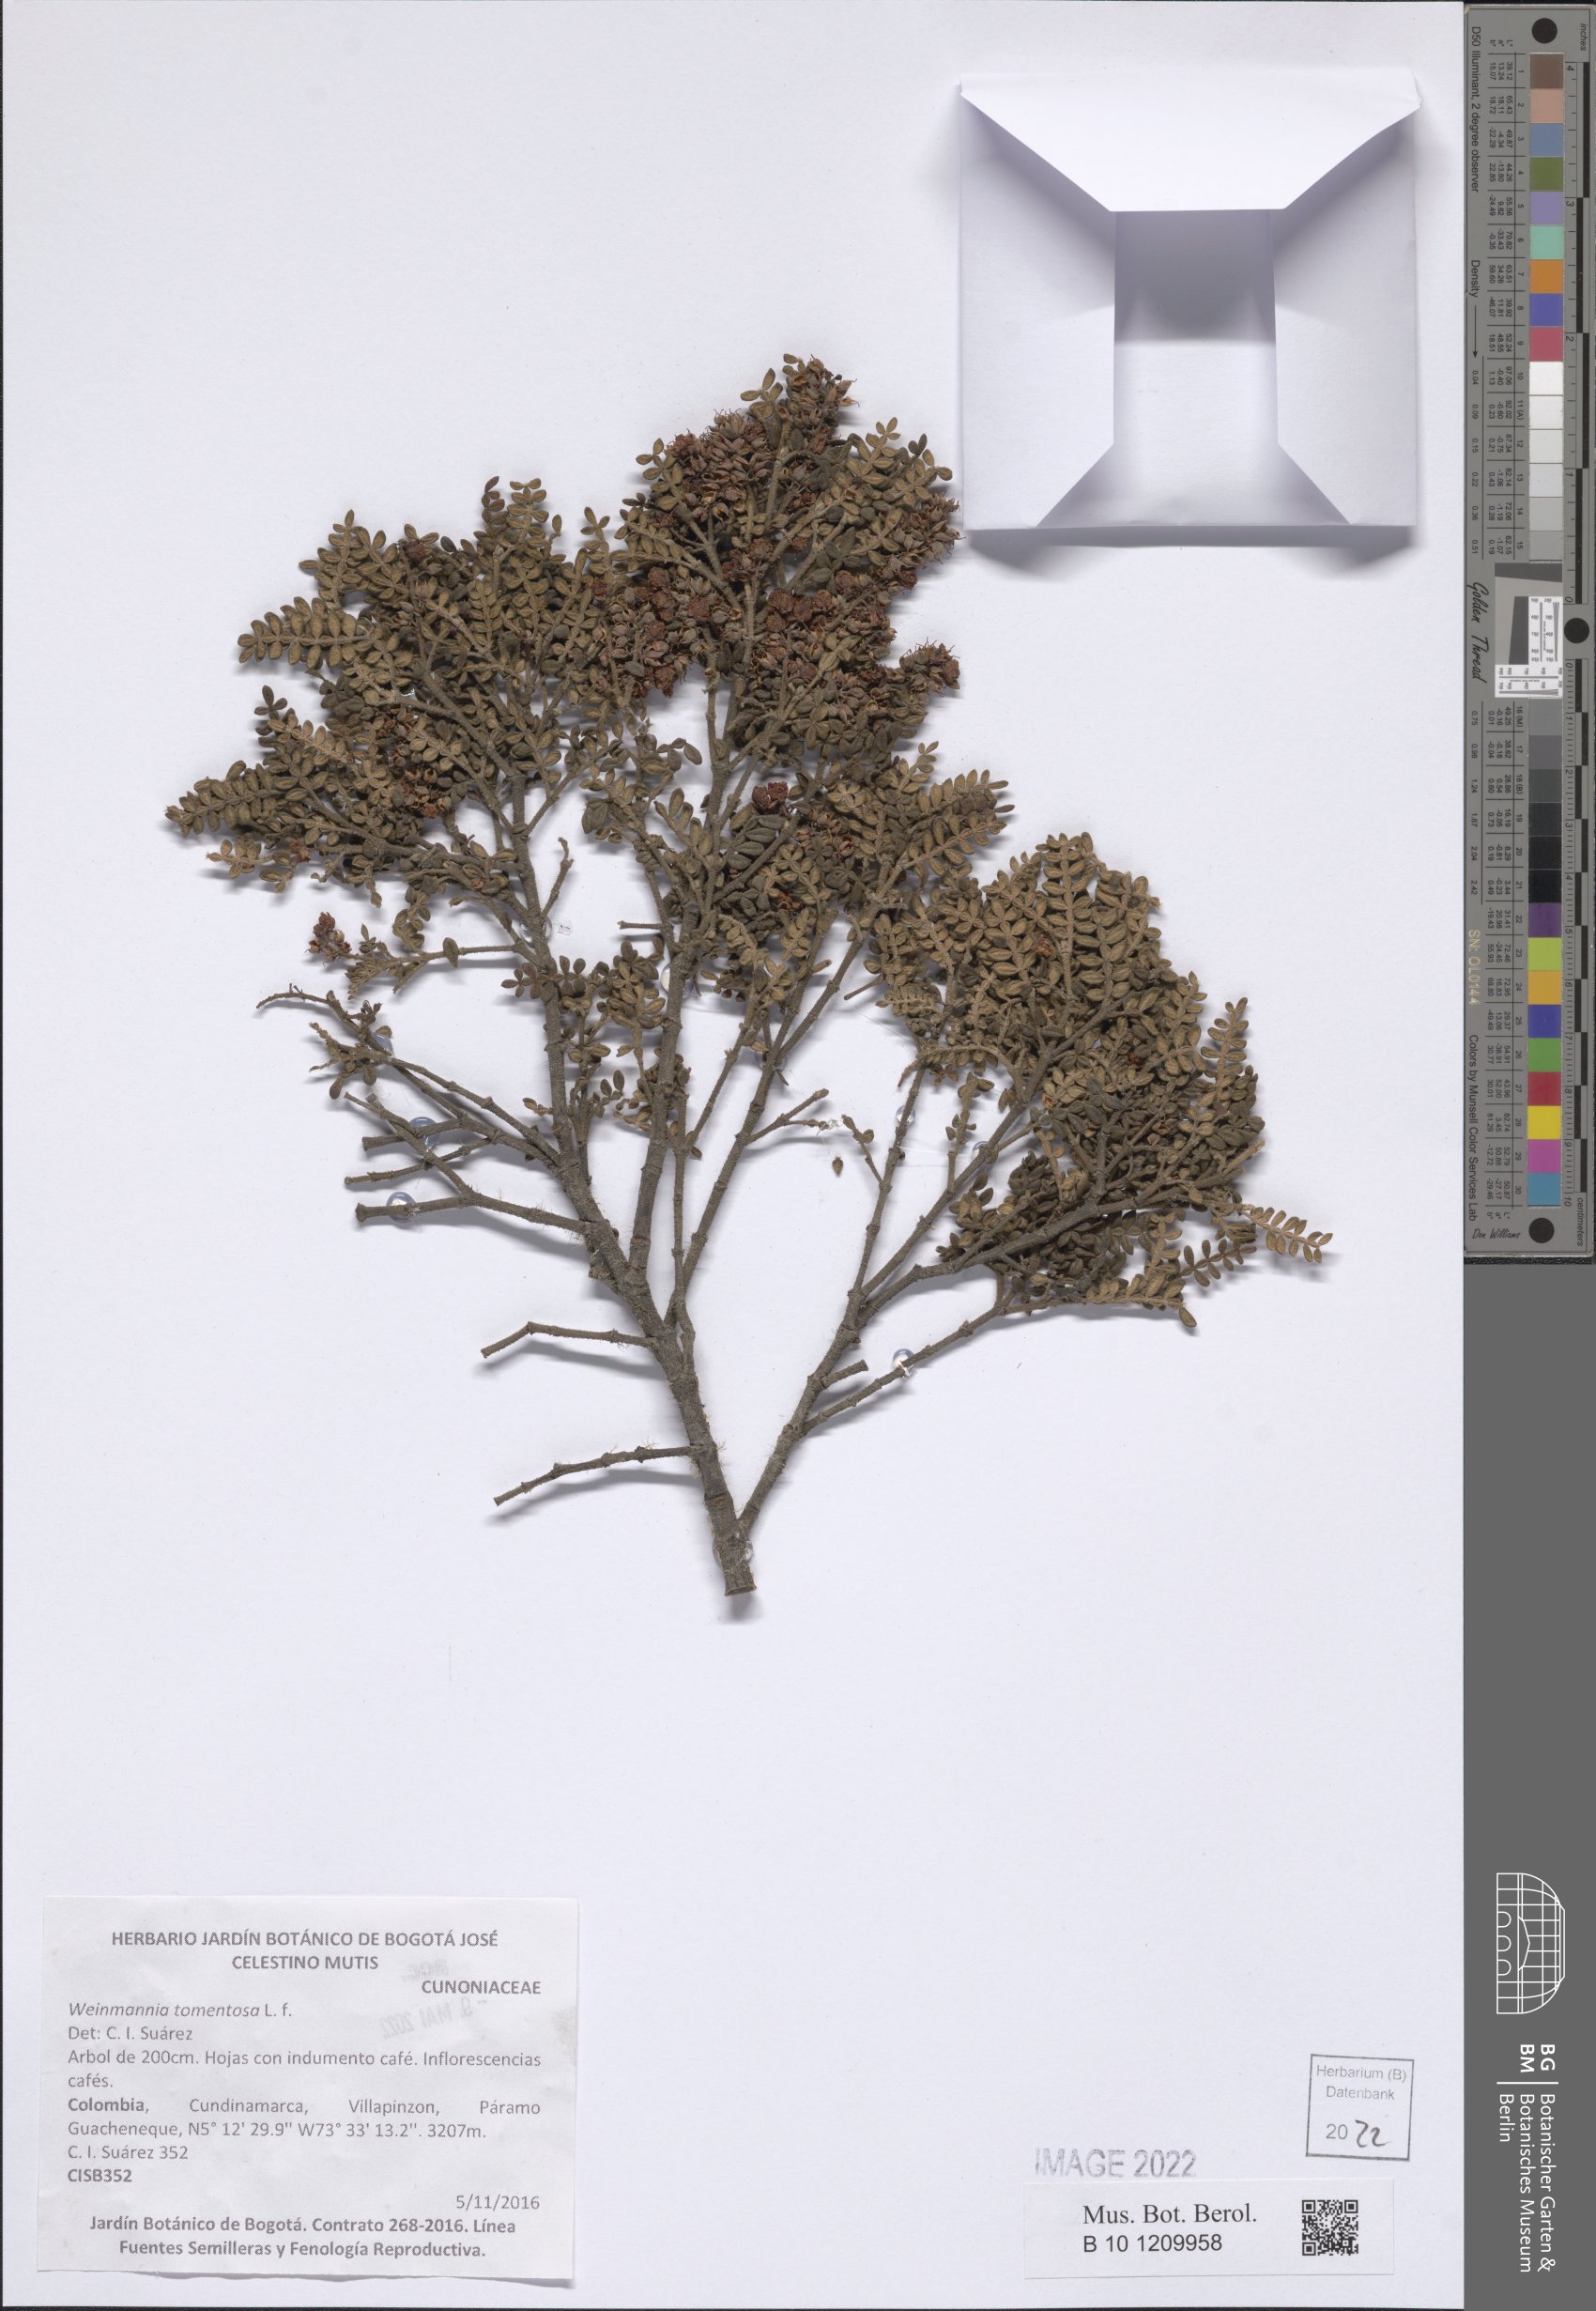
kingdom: Plantae
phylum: Tracheophyta
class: Magnoliopsida
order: Oxalidales
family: Cunoniaceae
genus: Weinmannia
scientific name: Weinmannia tomentosa
